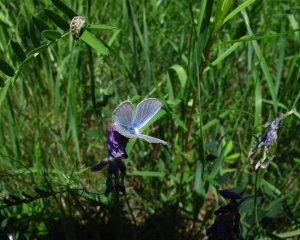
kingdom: Animalia
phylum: Arthropoda
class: Insecta
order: Lepidoptera
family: Lycaenidae
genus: Glaucopsyche
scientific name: Glaucopsyche lygdamus
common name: Silvery Blue
